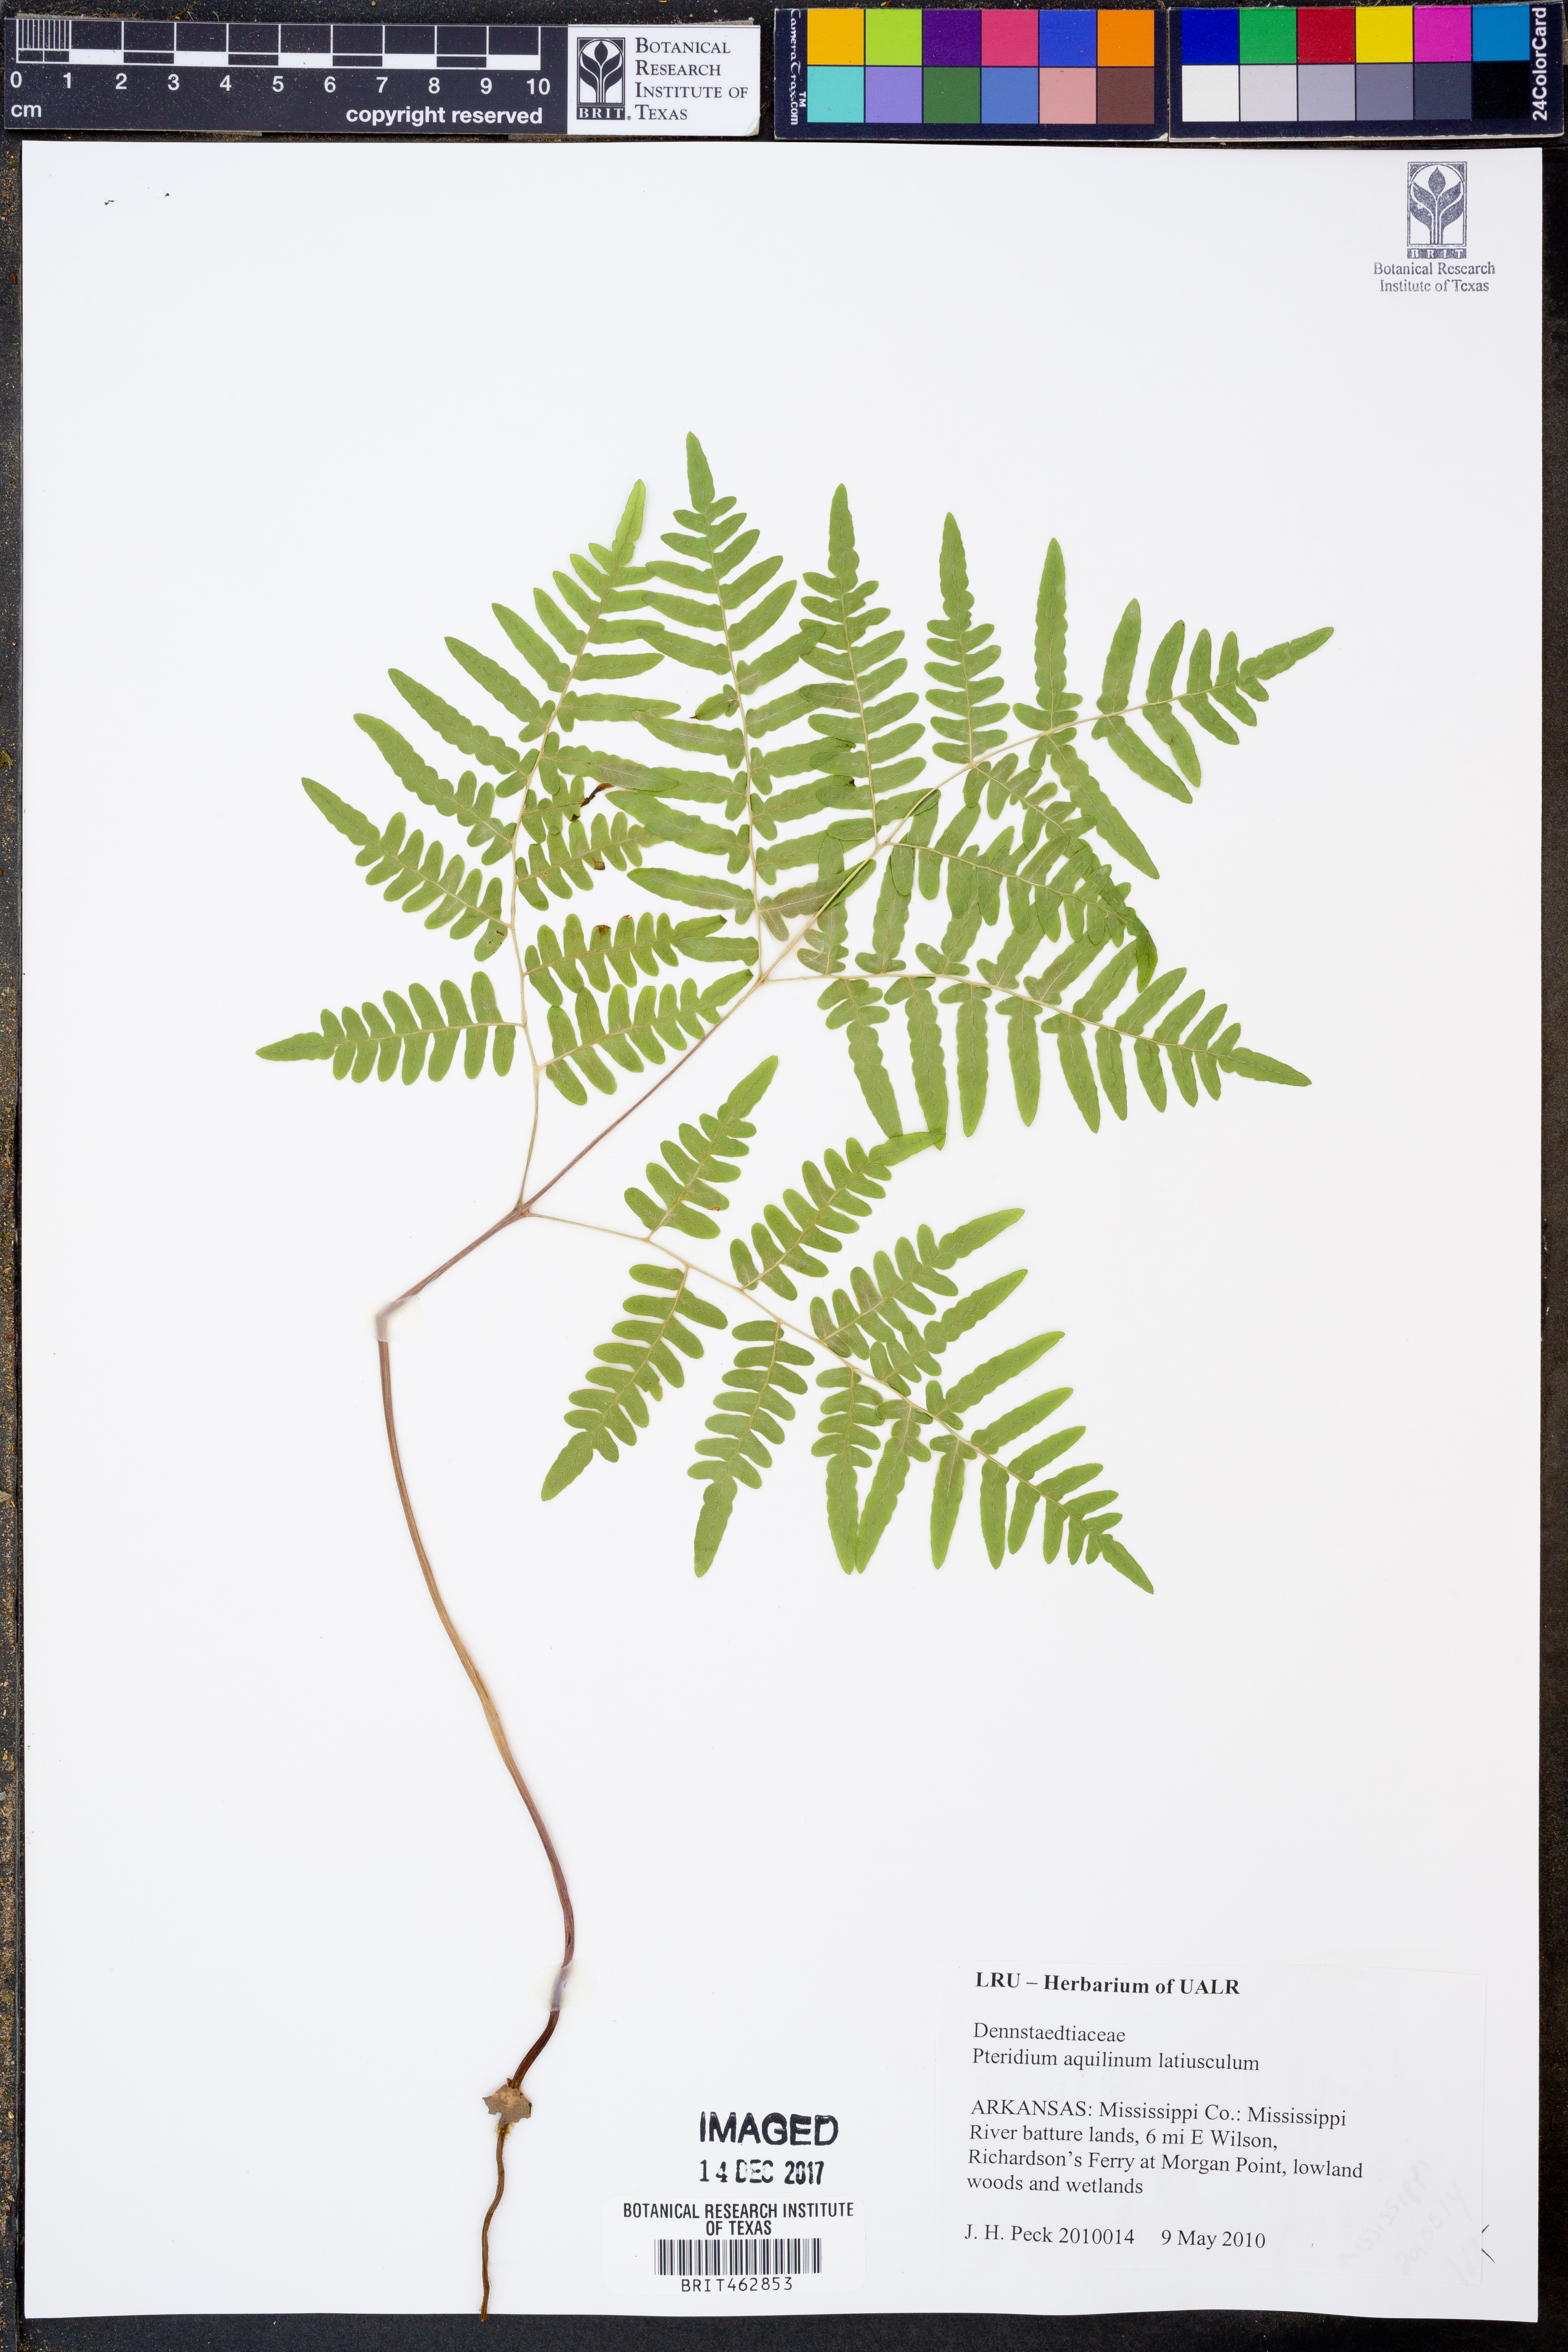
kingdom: Plantae
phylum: Tracheophyta
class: Polypodiopsida
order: Polypodiales
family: Dennstaedtiaceae
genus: Pteridium
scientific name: Pteridium aquilinum
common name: Bracken
